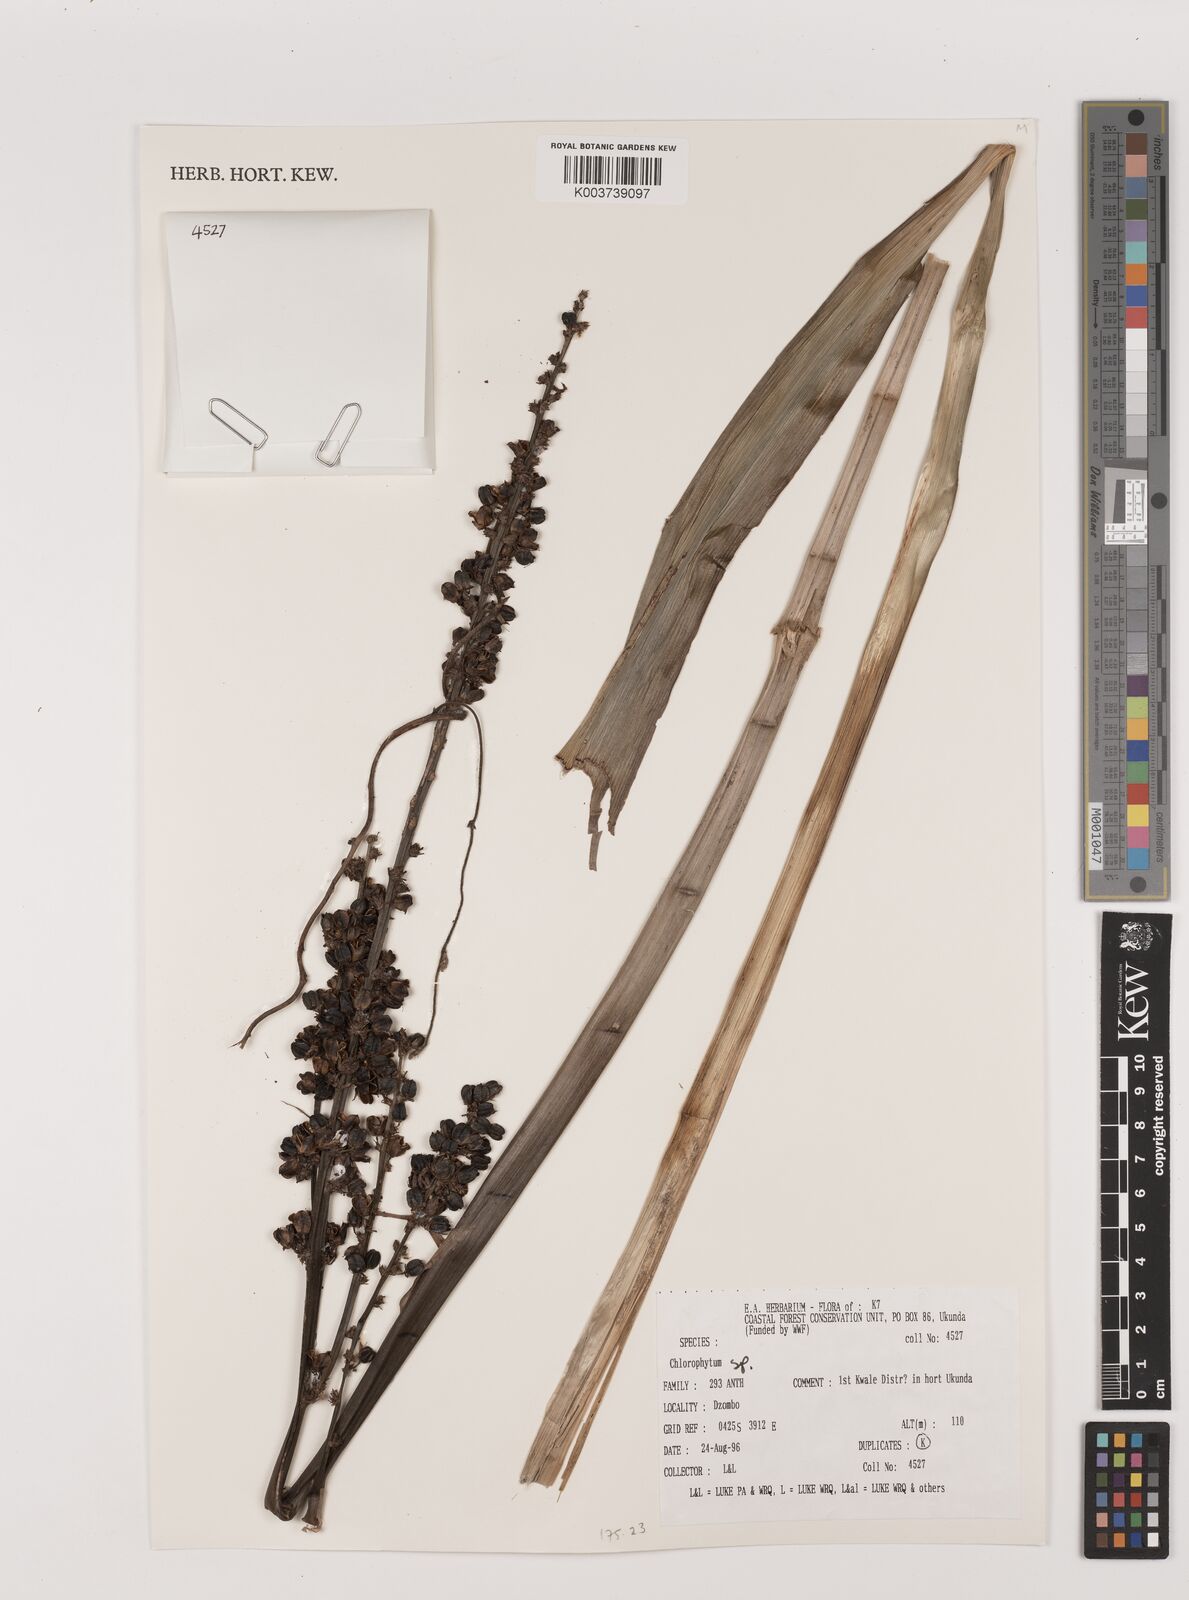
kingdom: Plantae
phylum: Tracheophyta
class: Liliopsida
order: Asparagales
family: Asparagaceae
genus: Chlorophytum
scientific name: Chlorophytum
